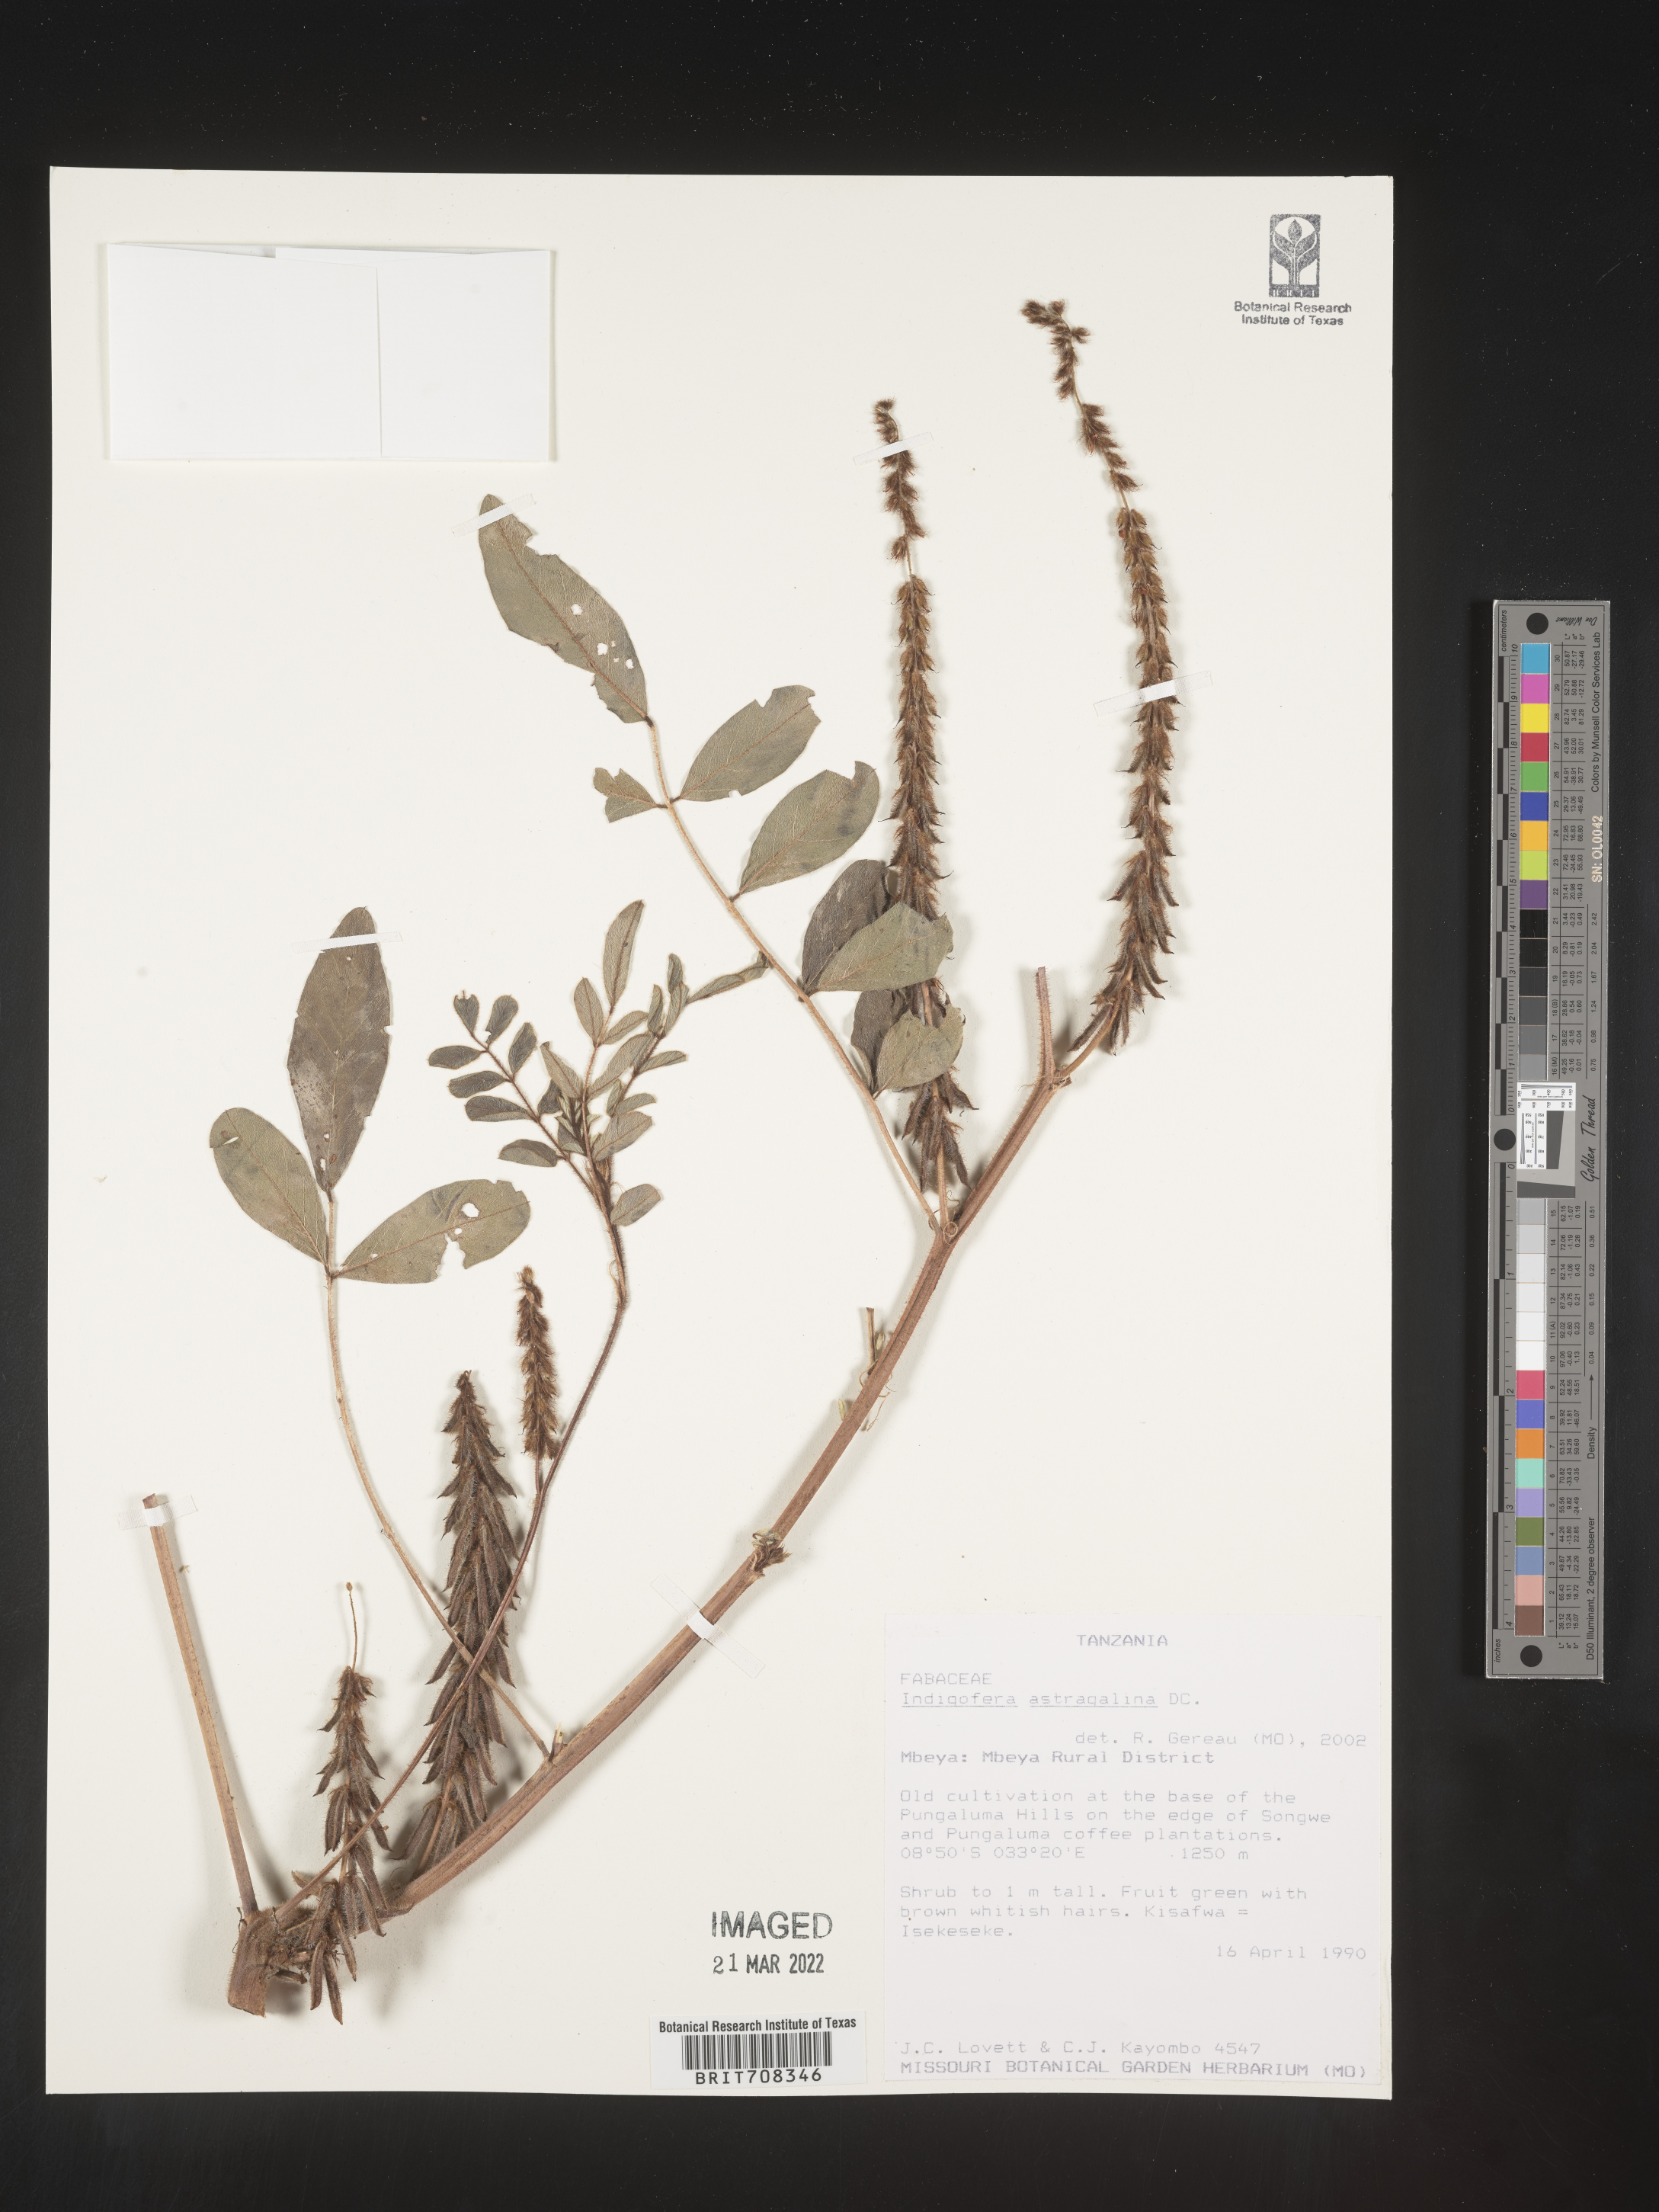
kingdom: Plantae
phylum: Tracheophyta
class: Magnoliopsida
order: Fabales
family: Fabaceae
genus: Indigofera
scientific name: Indigofera
